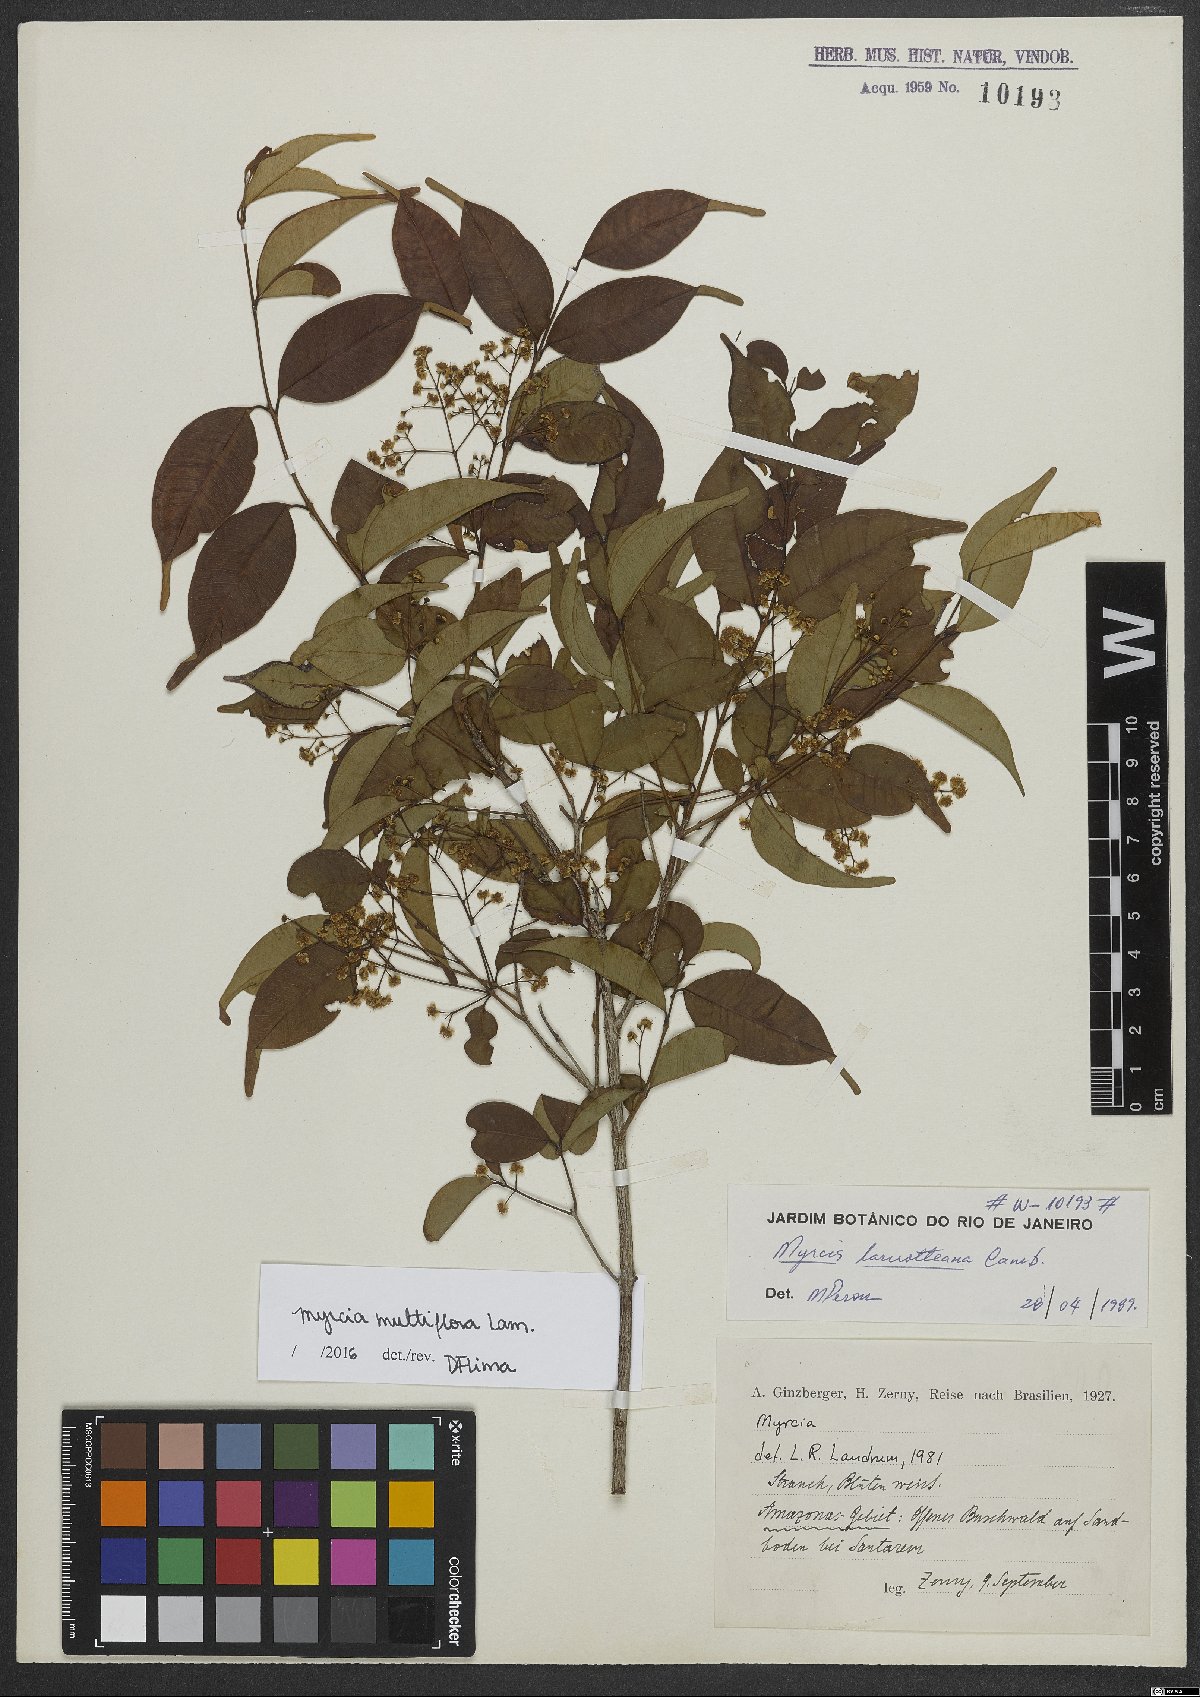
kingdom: Plantae
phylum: Tracheophyta
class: Magnoliopsida
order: Myrtales
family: Myrtaceae
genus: Myrcia
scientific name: Myrcia multiflora
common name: Pedra hume
